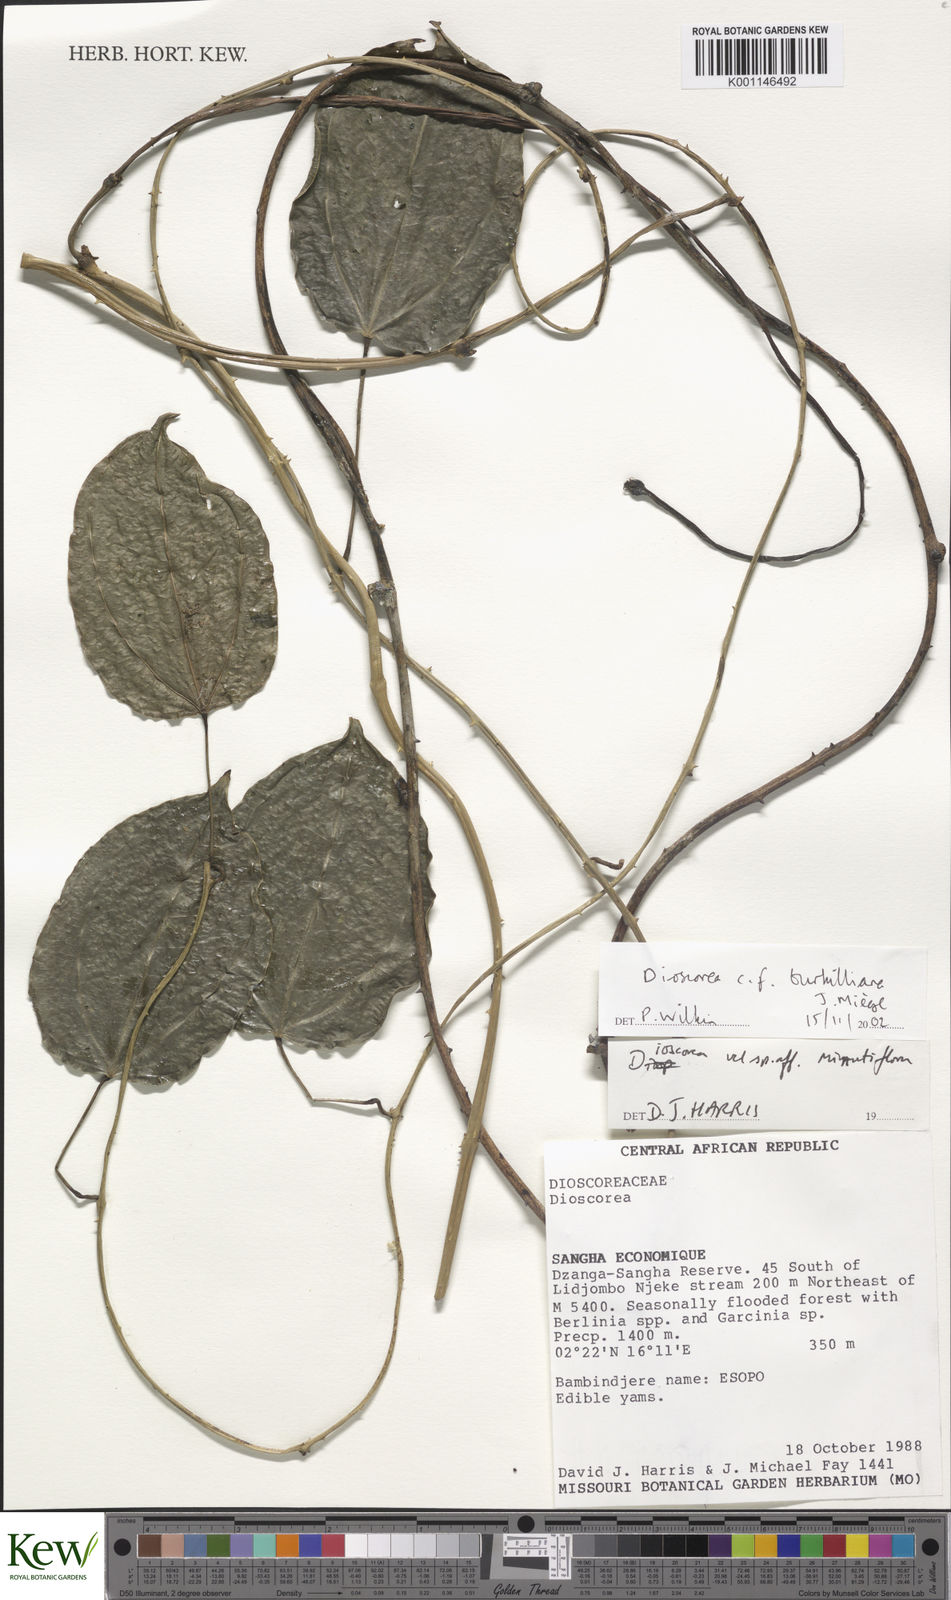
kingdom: Plantae
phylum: Tracheophyta
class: Liliopsida
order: Dioscoreales
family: Dioscoreaceae
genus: Dioscorea
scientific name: Dioscorea
